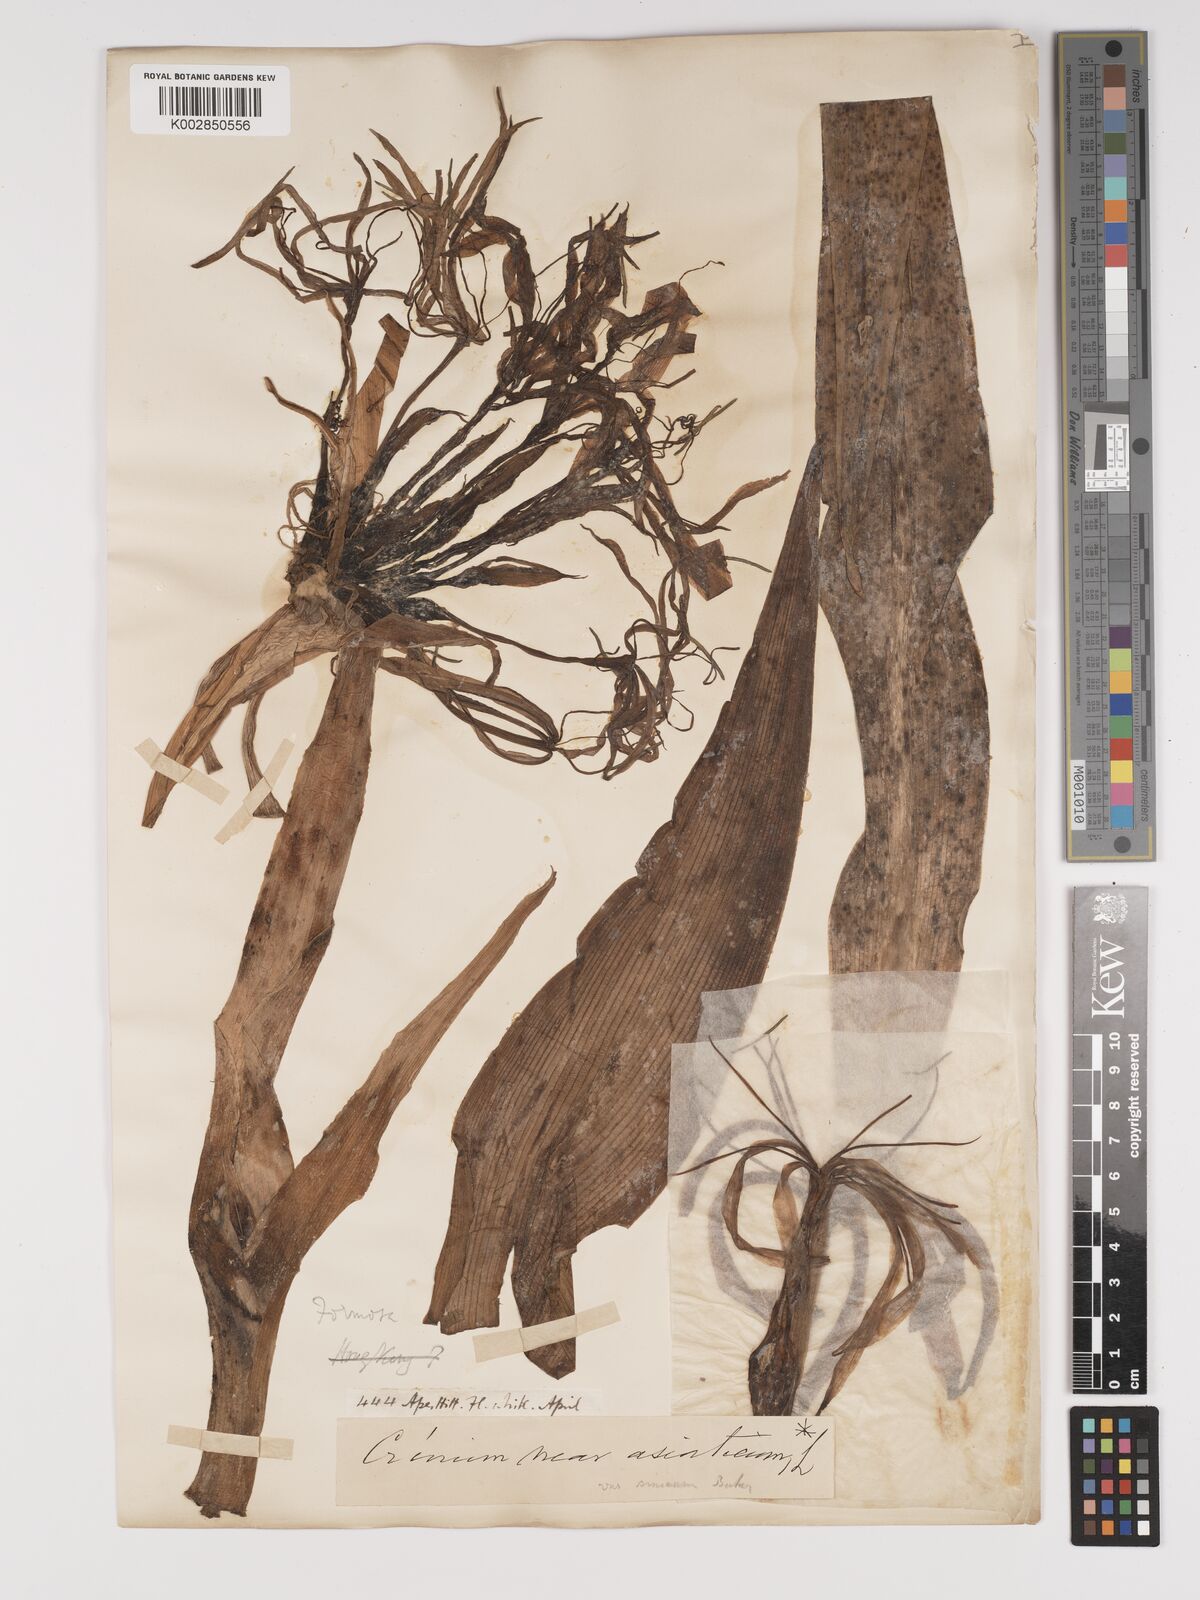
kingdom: Plantae
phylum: Tracheophyta
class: Liliopsida
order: Asparagales
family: Amaryllidaceae
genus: Crinum
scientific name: Crinum asiaticum
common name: Poisonbulb
